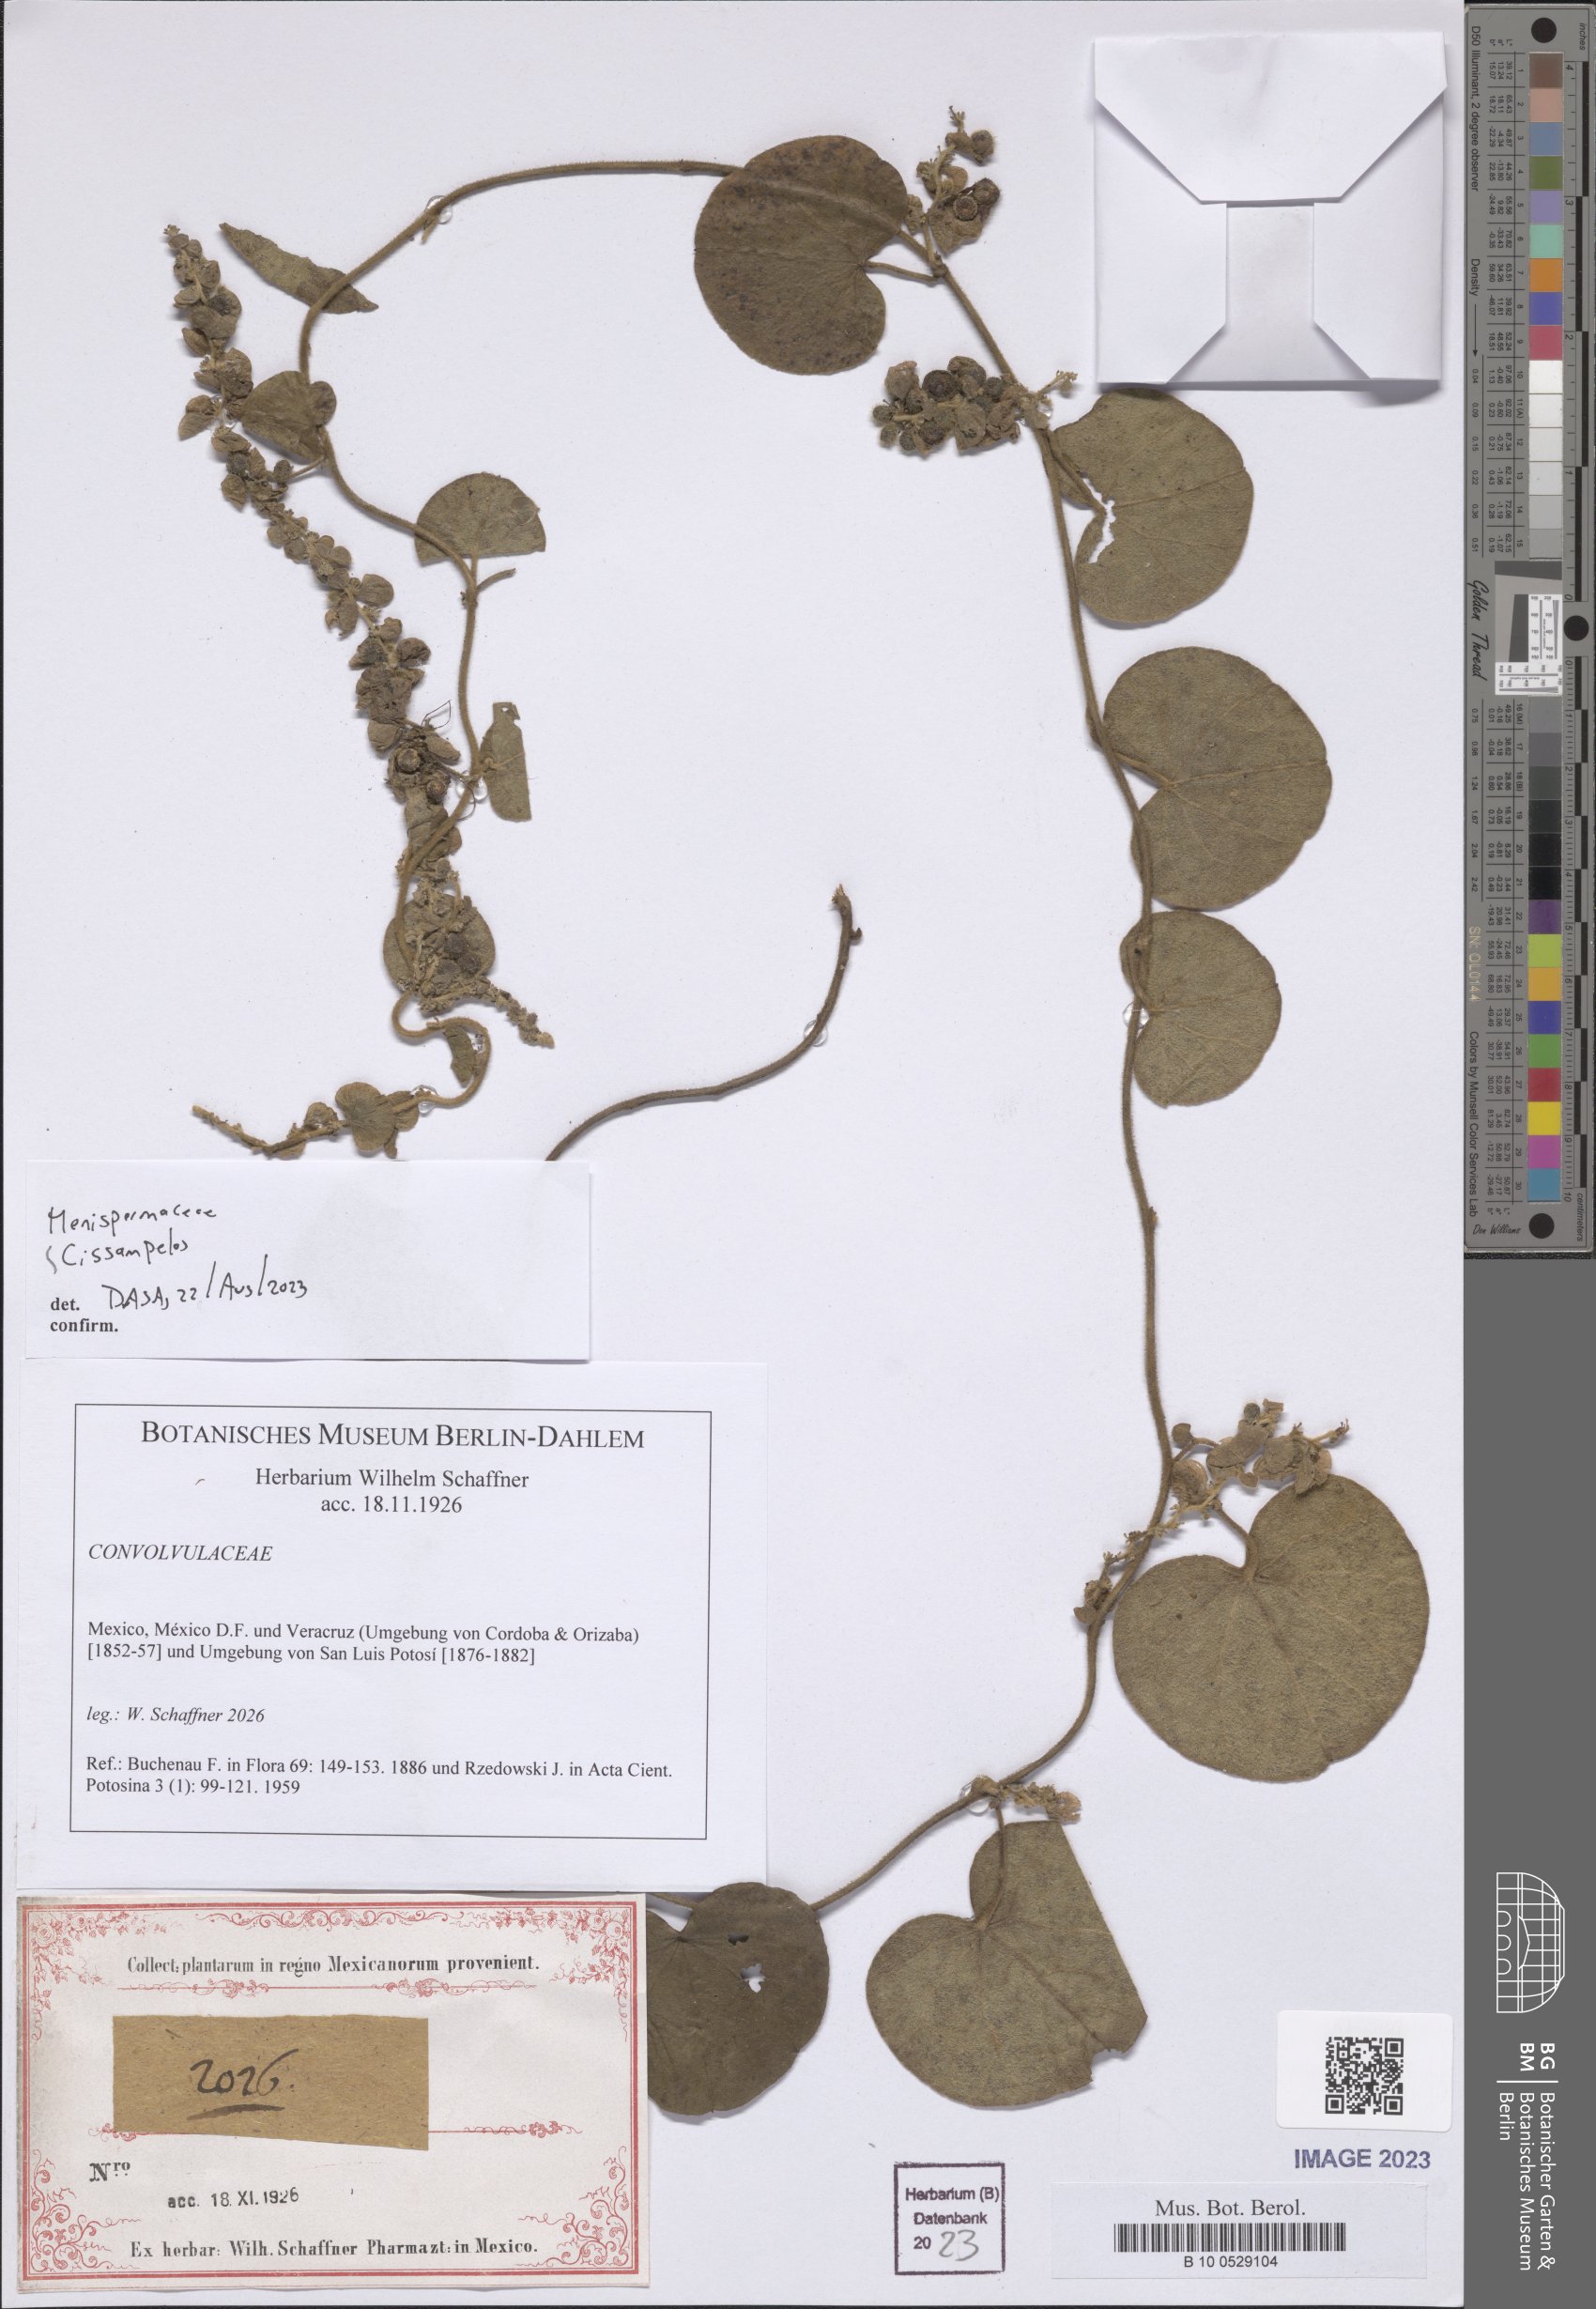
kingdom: Plantae
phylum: Tracheophyta
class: Magnoliopsida
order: Ranunculales
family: Menispermaceae
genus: Cissampelos
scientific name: Cissampelos
